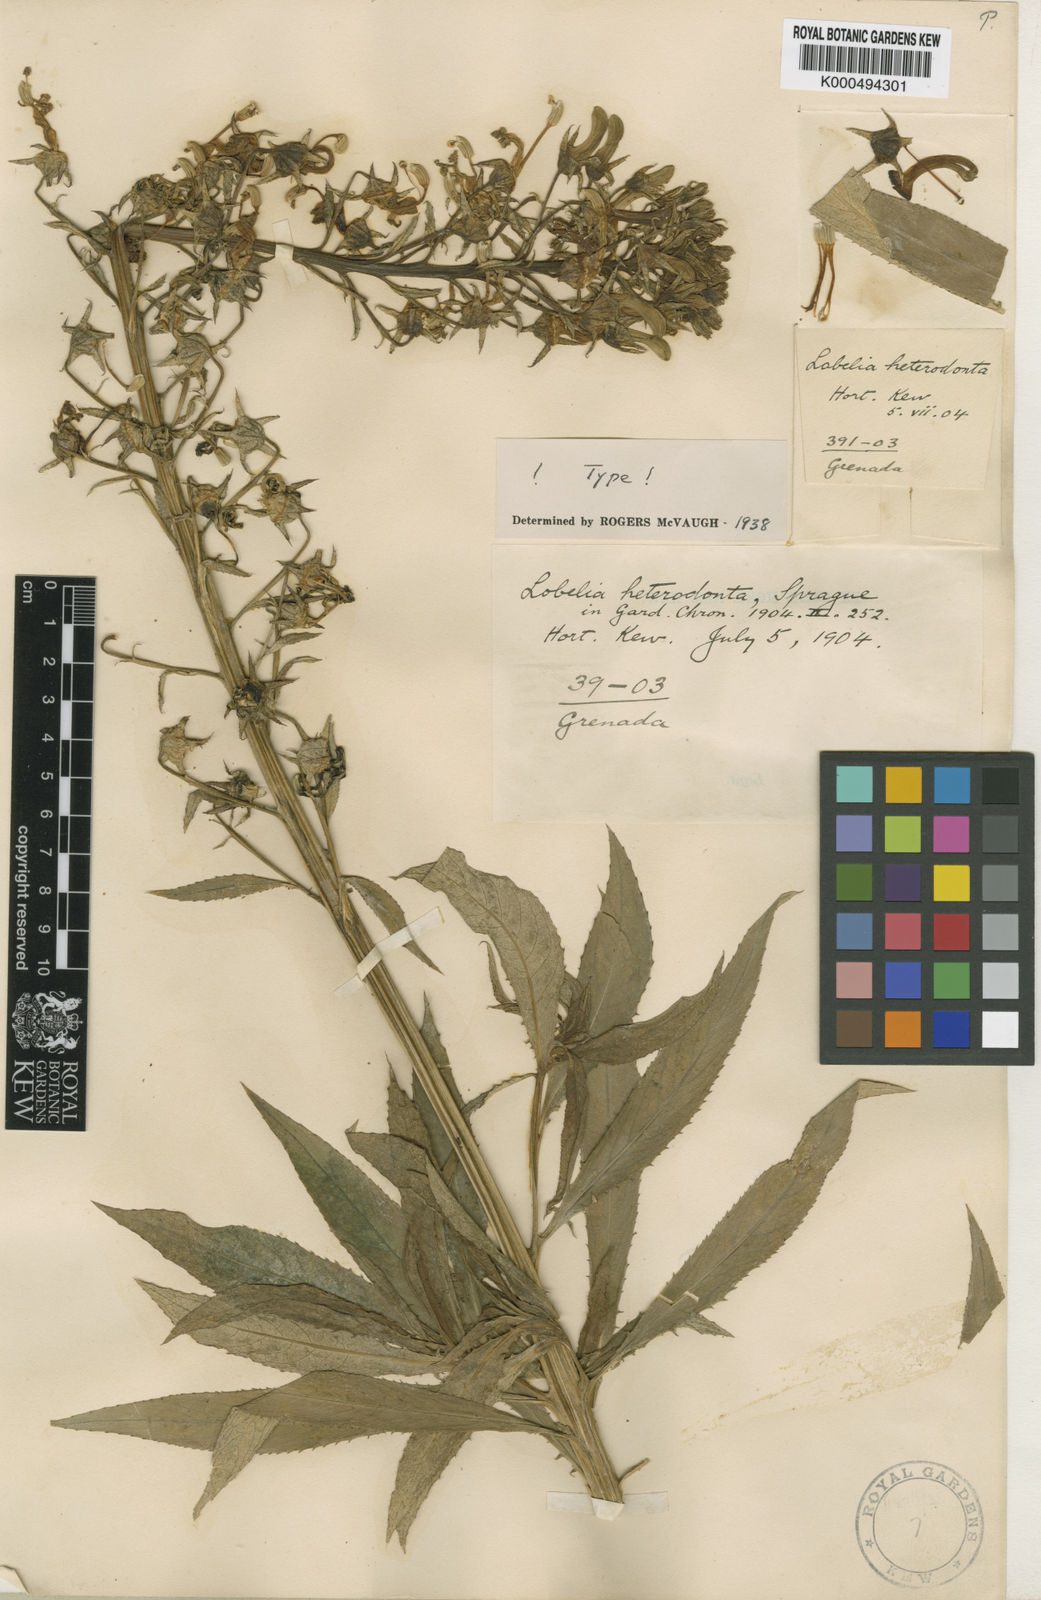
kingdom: Plantae
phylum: Tracheophyta
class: Magnoliopsida
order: Asterales
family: Campanulaceae
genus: Lobelia
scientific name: Lobelia cirsiifolia
